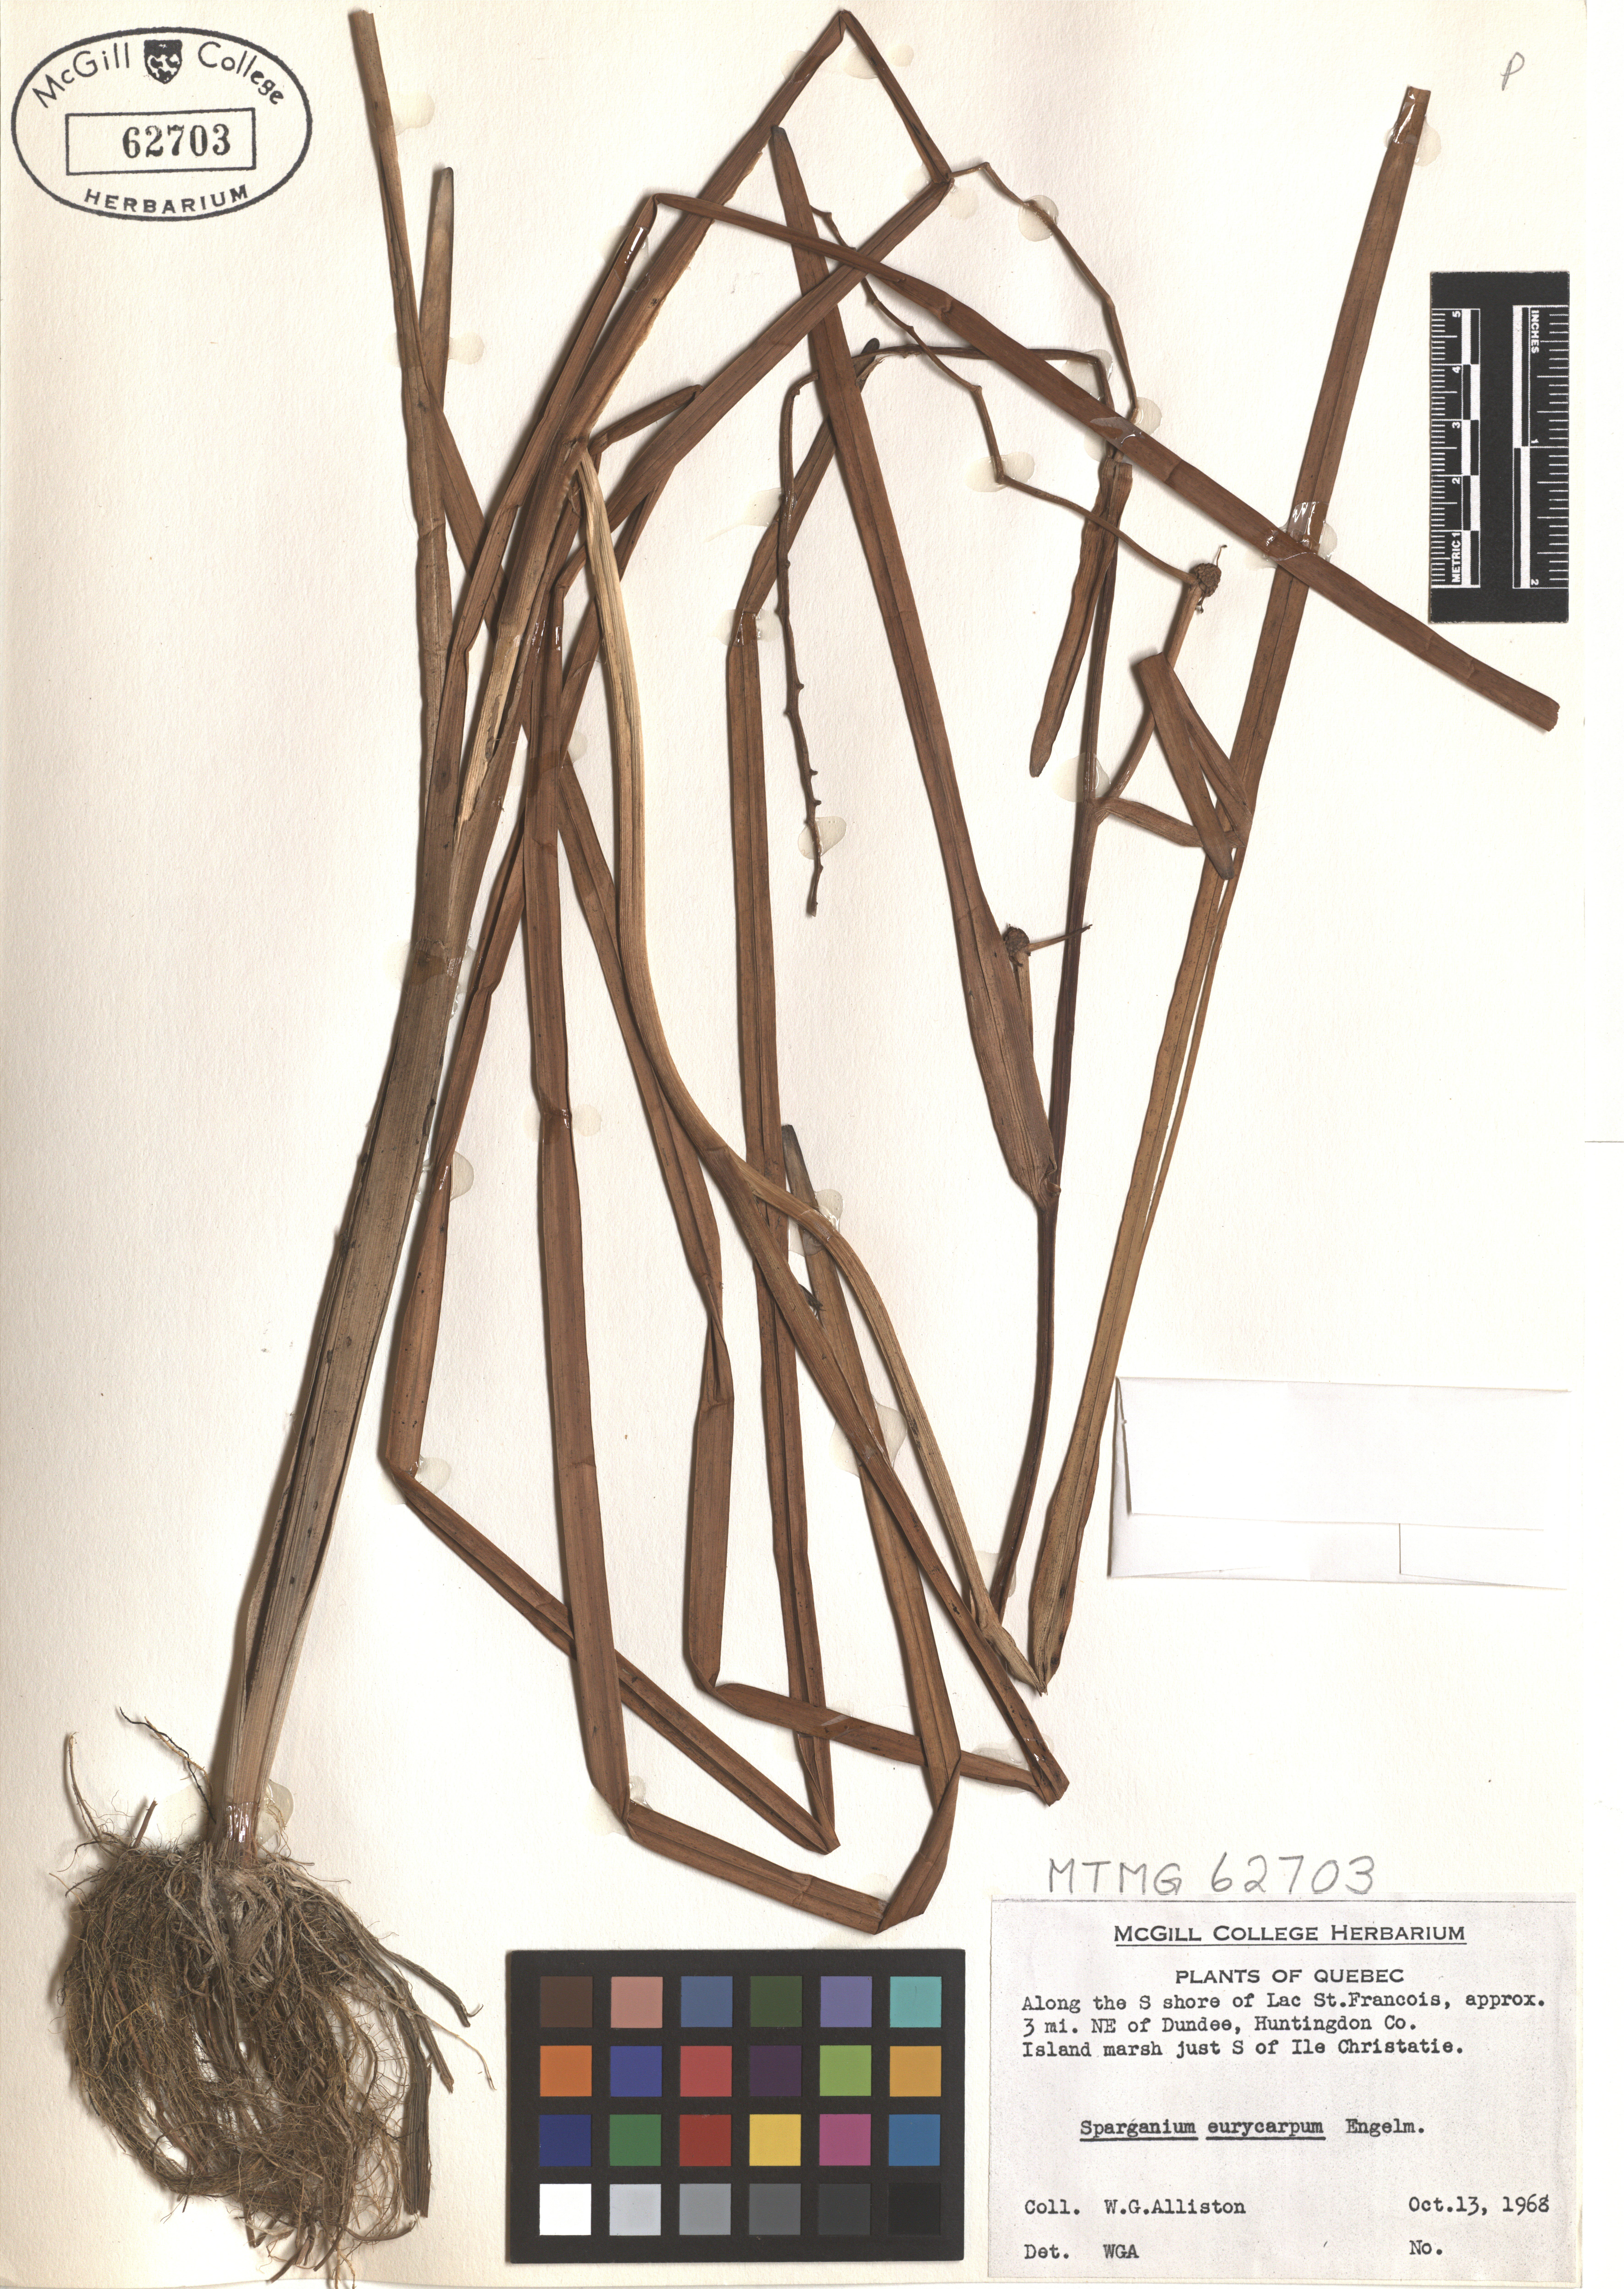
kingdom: Plantae
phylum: Tracheophyta
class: Liliopsida
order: Poales
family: Typhaceae
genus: Sparganium
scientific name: Sparganium eurycarpum
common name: Broad-fruited burreed
